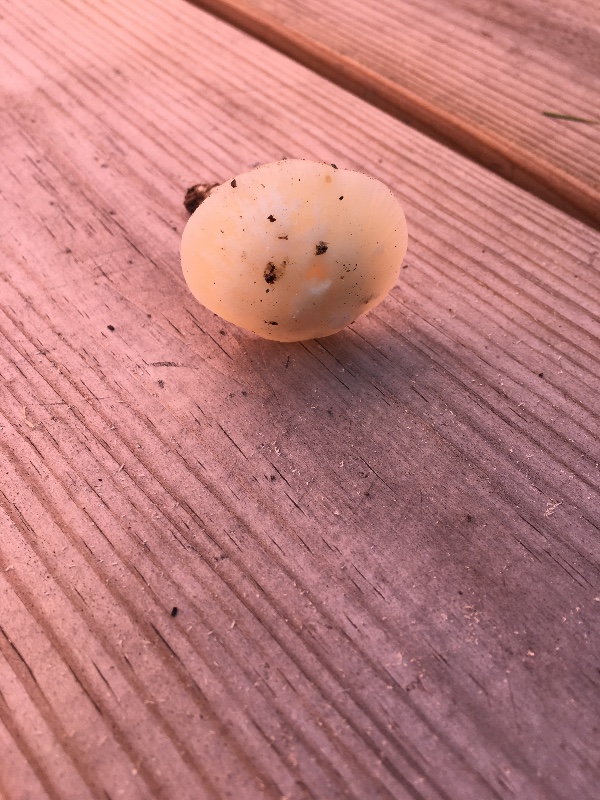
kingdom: Fungi
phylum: Basidiomycota
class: Agaricomycetes
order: Agaricales
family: Hygrophoraceae
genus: Cuphophyllus
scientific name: Cuphophyllus virgineus
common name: snehvid vokshat
